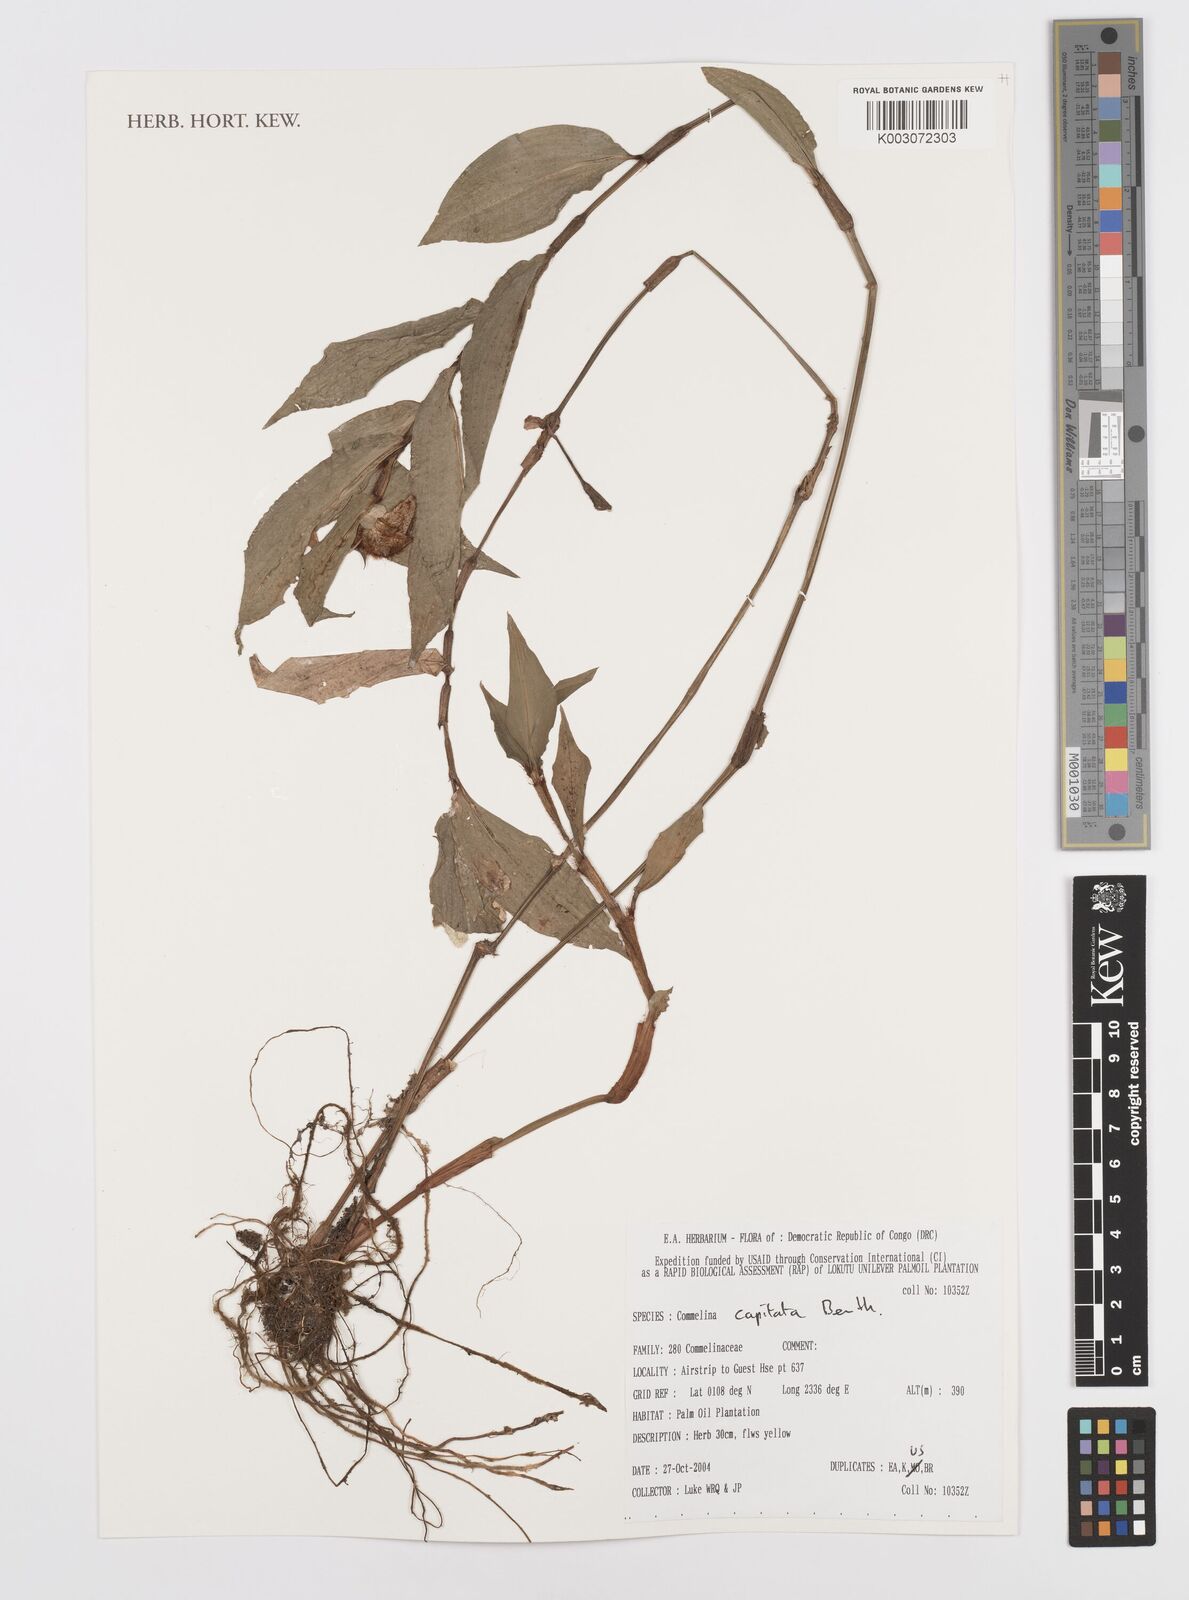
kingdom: Plantae
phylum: Tracheophyta
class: Liliopsida
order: Commelinales
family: Commelinaceae
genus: Commelina
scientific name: Commelina capitata
